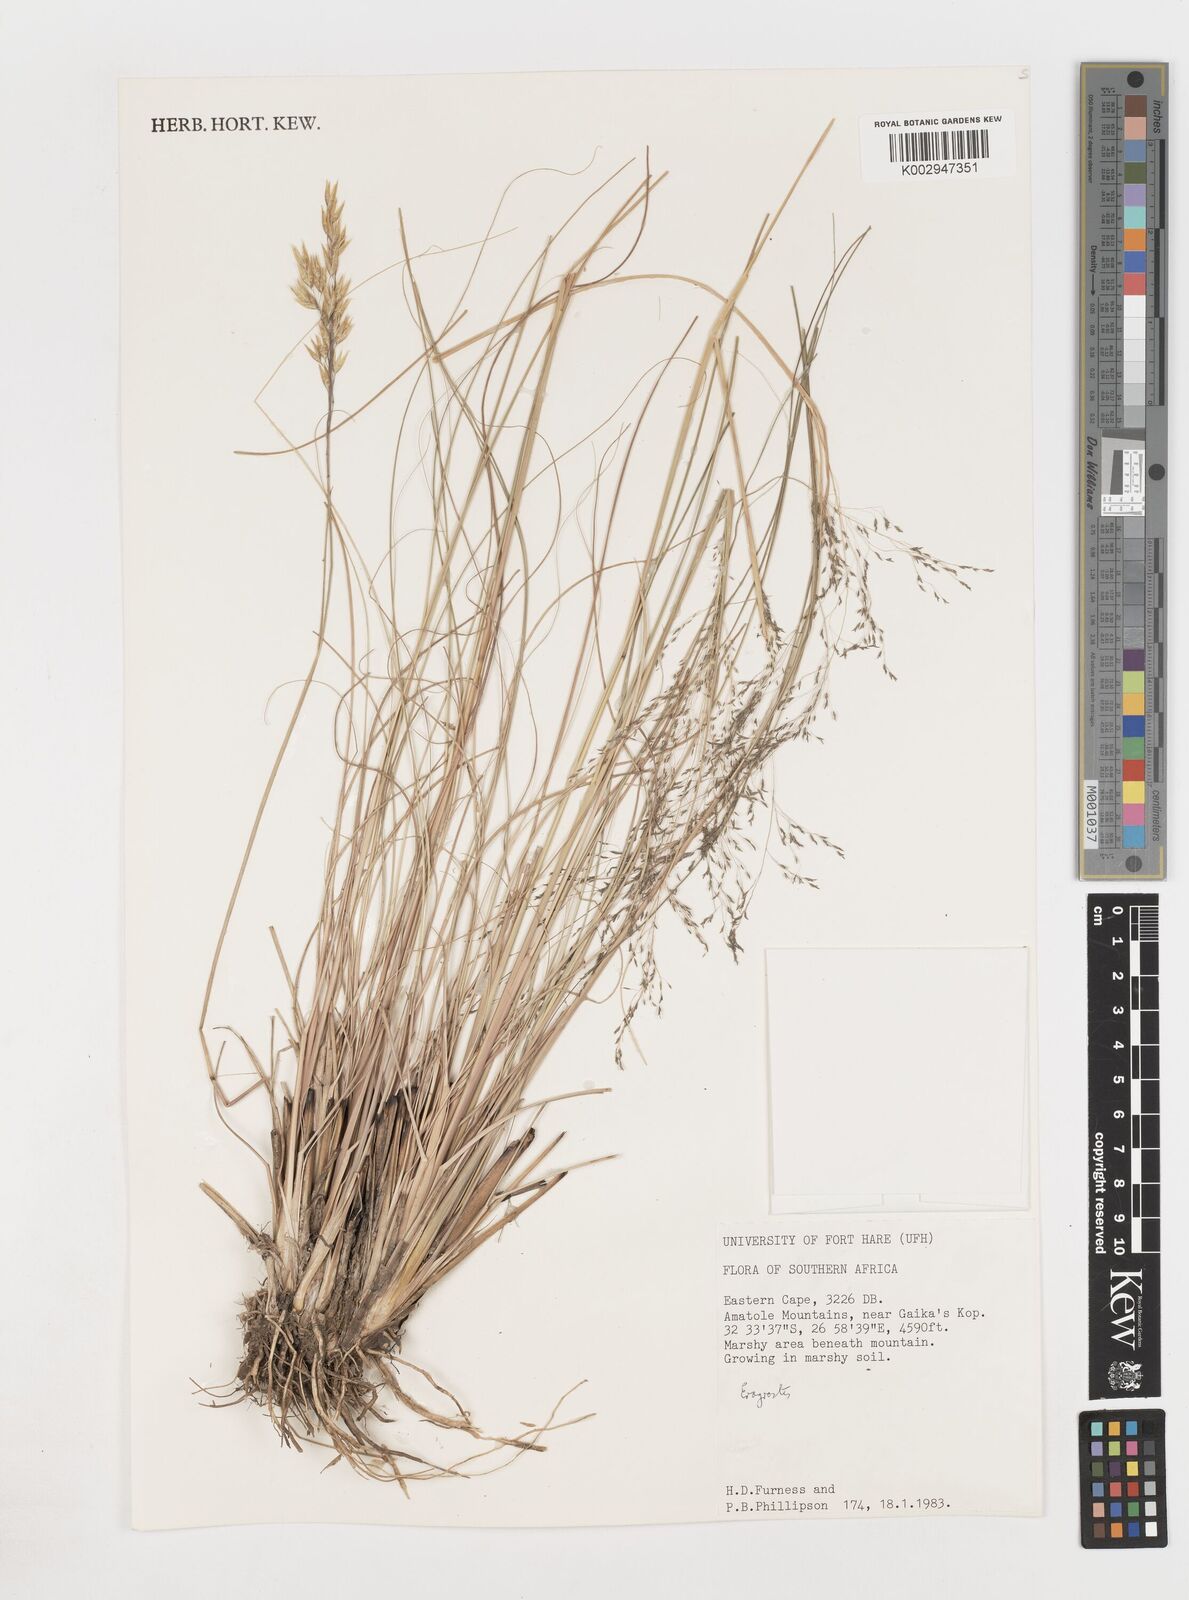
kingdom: Plantae
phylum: Tracheophyta
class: Liliopsida
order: Poales
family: Poaceae
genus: Eragrostis
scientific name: Eragrostis
